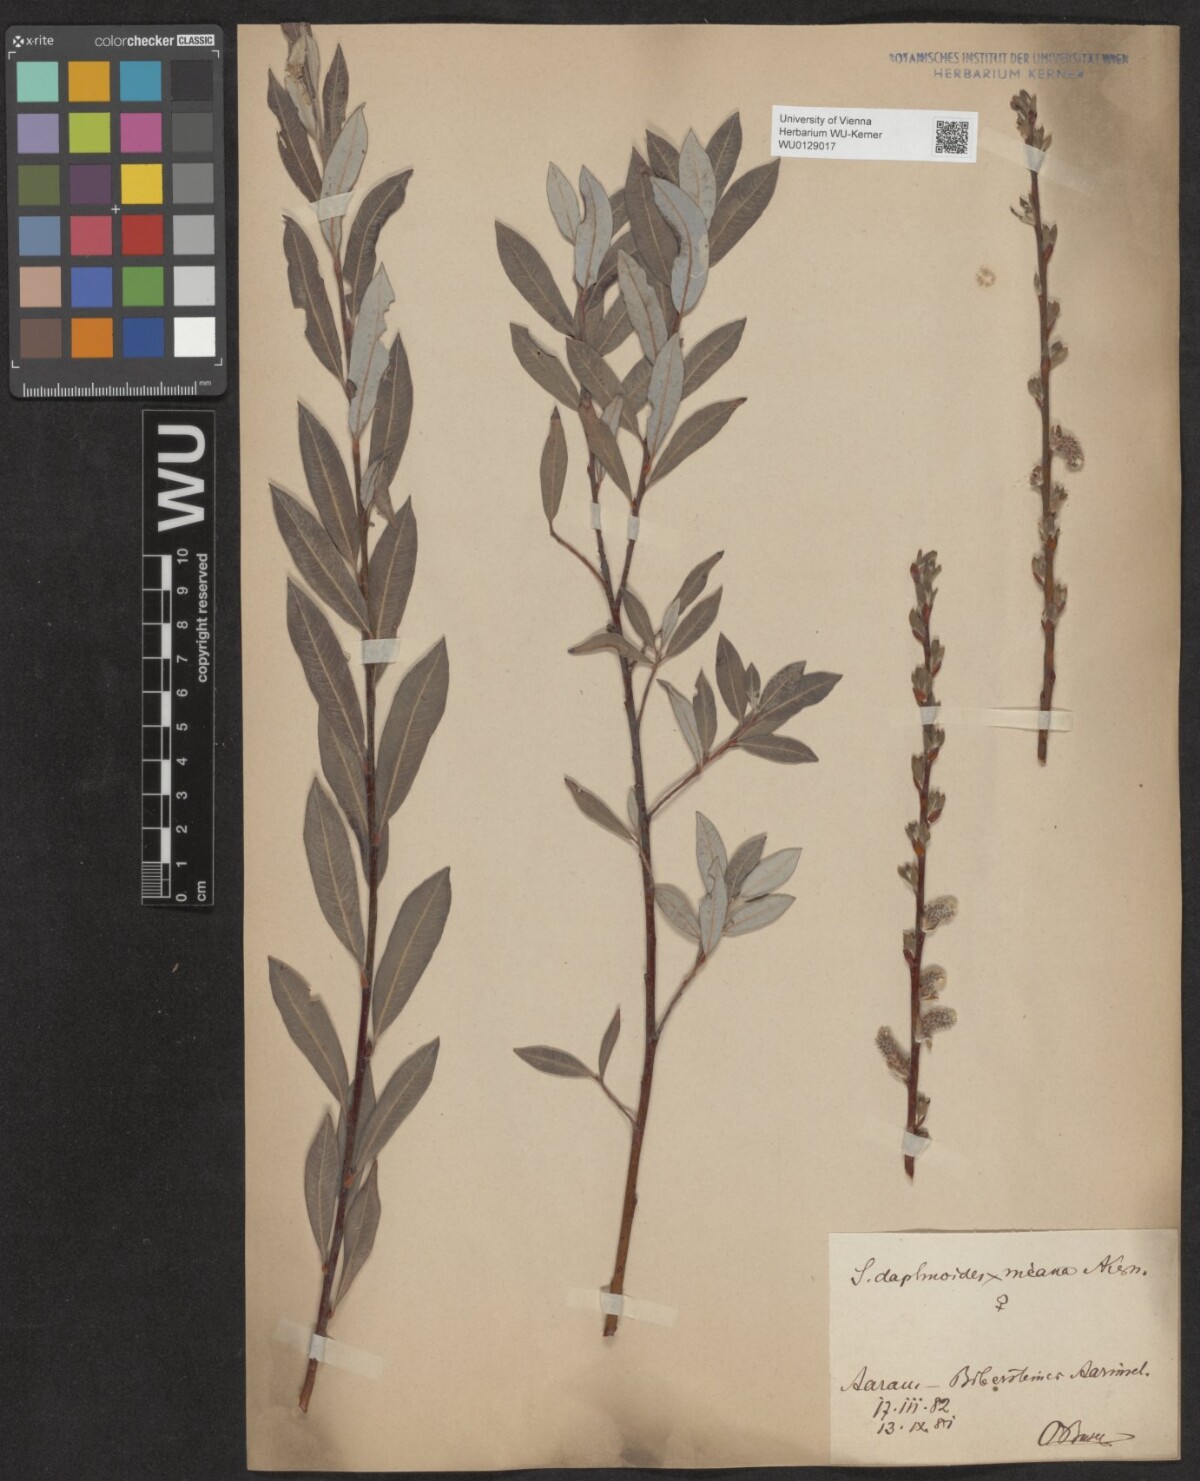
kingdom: Plantae
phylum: Tracheophyta
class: Magnoliopsida
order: Malpighiales
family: Salicaceae
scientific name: Salicaceae
